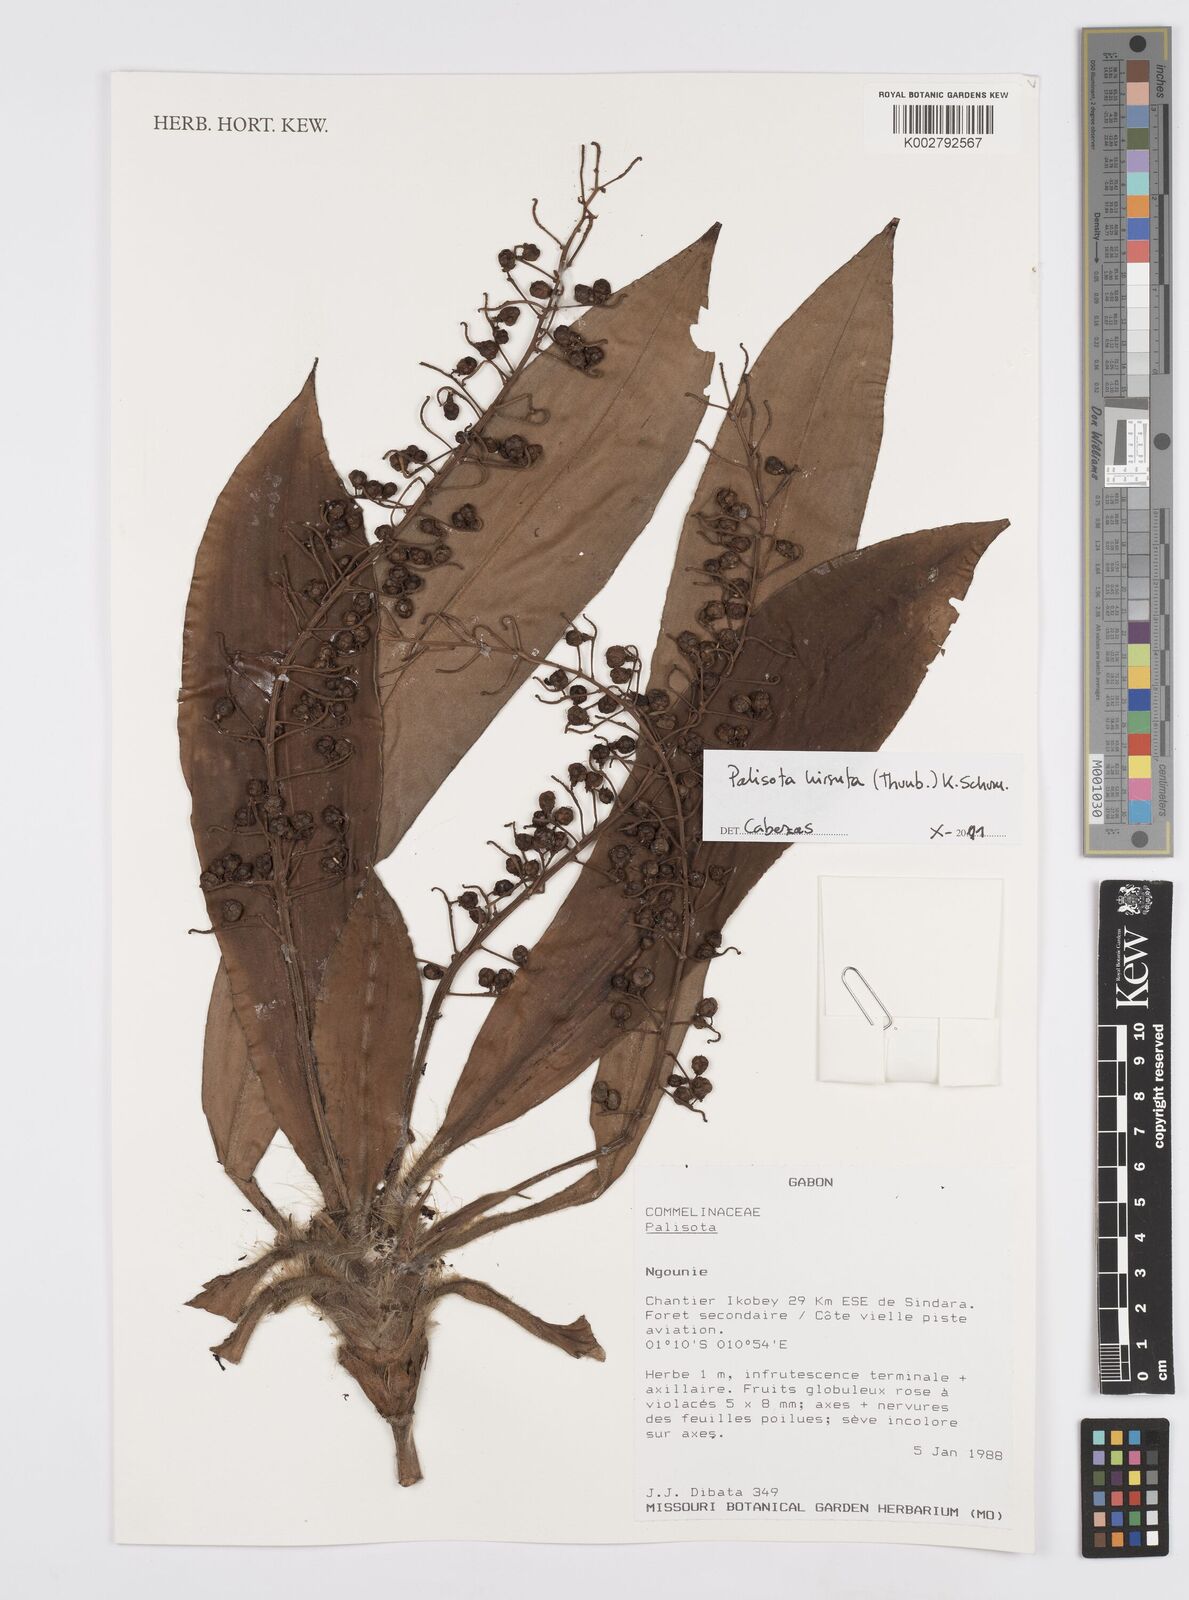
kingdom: Plantae
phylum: Tracheophyta
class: Liliopsida
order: Commelinales
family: Commelinaceae
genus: Palisota
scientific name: Palisota hirsuta
